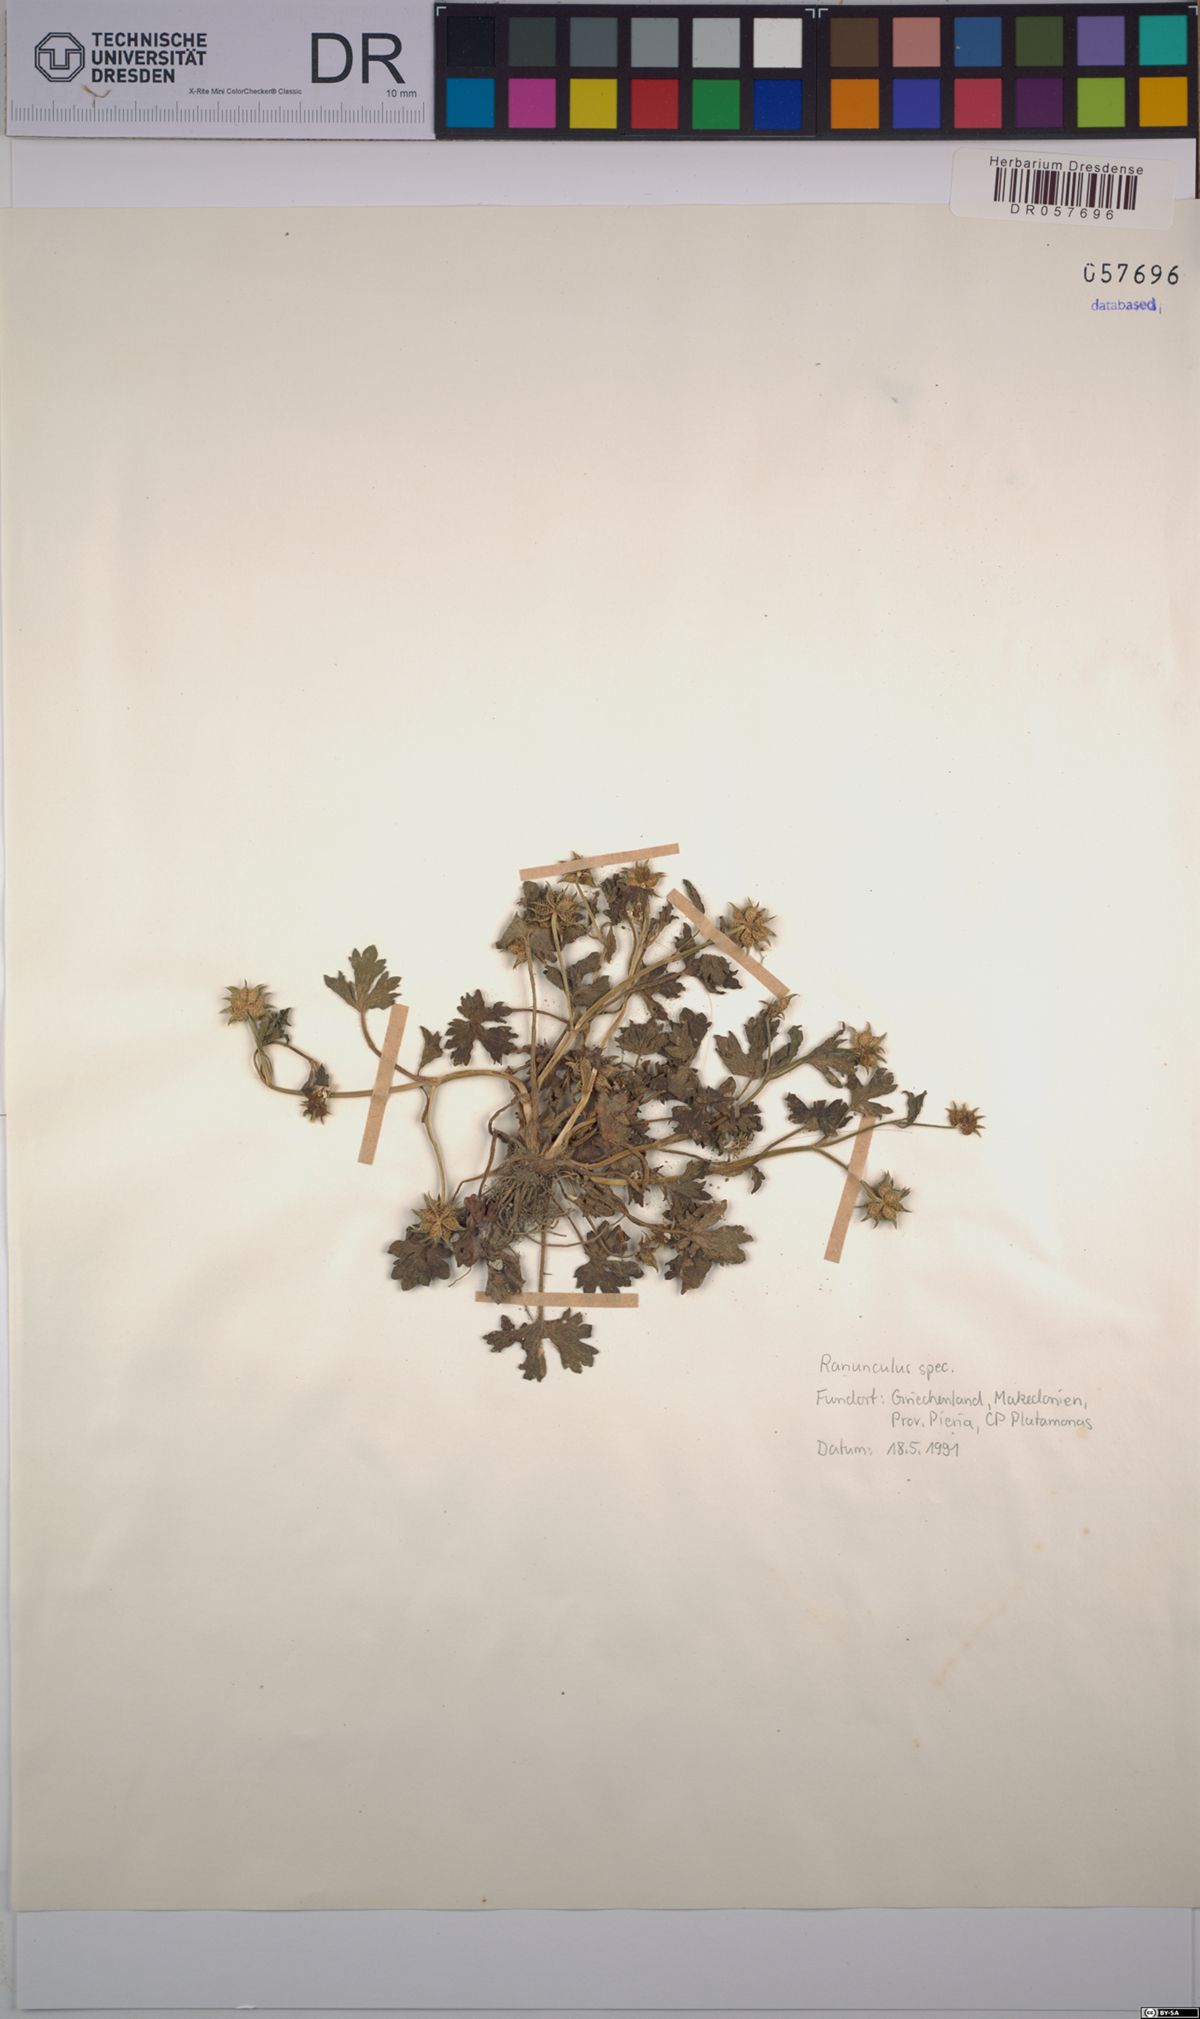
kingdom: Plantae
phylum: Tracheophyta
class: Magnoliopsida
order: Ranunculales
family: Ranunculaceae
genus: Ranunculus
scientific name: Ranunculus
